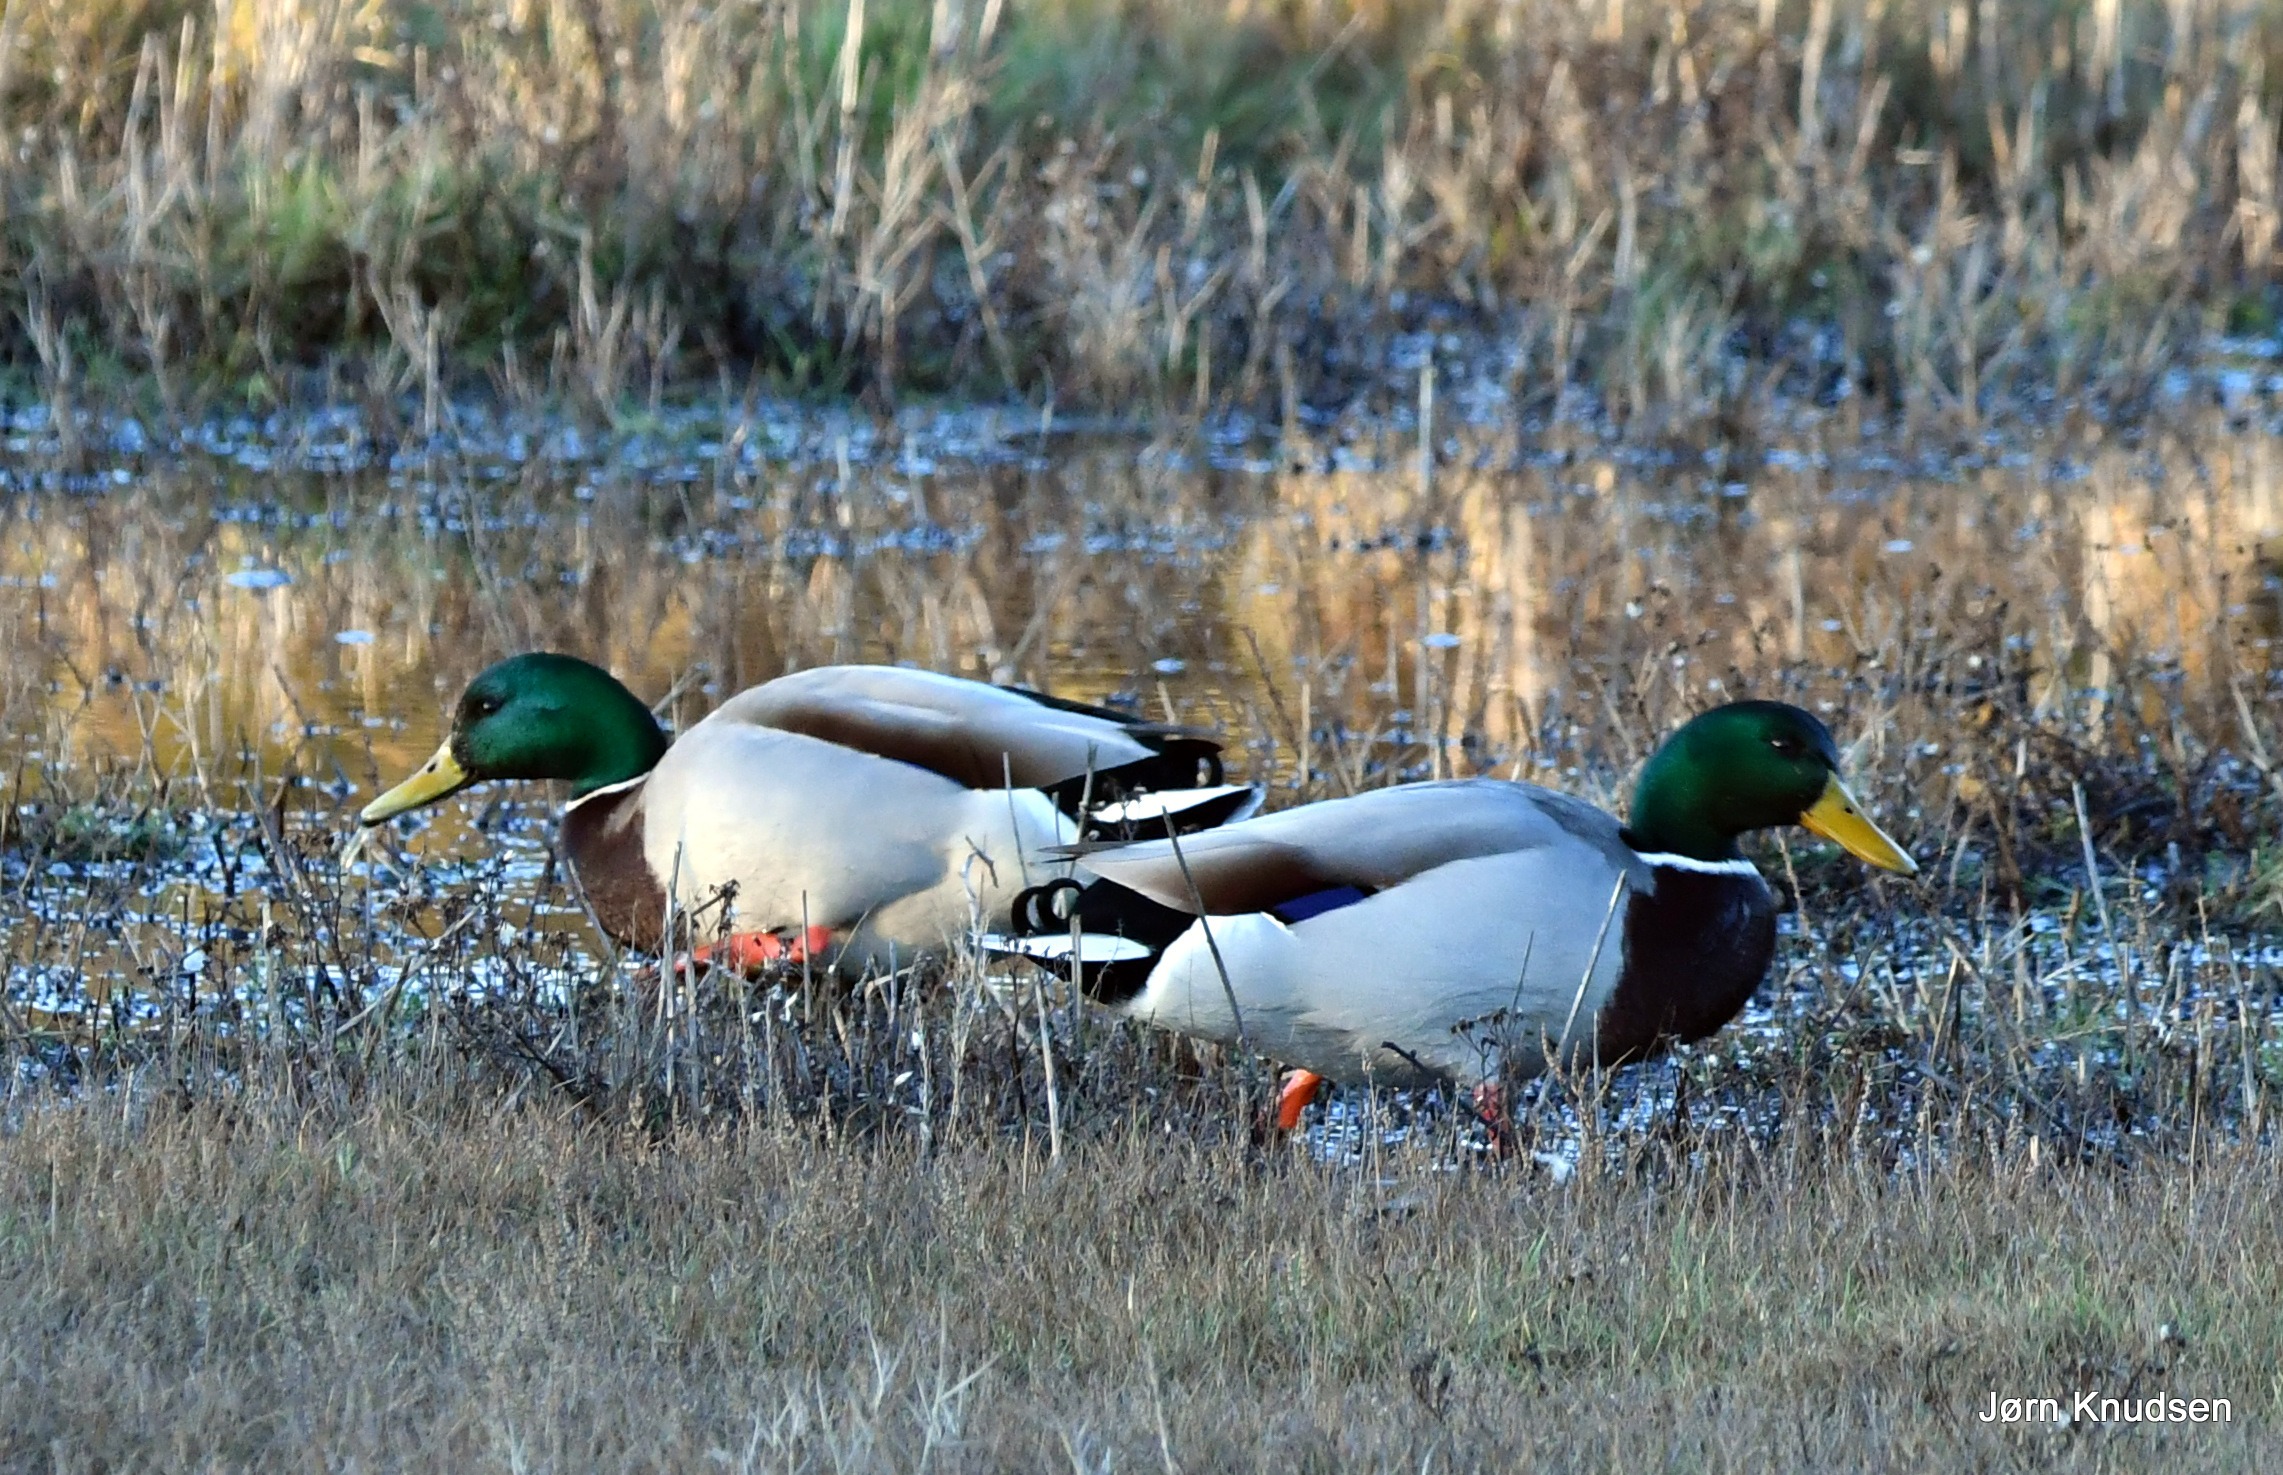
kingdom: Animalia
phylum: Chordata
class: Aves
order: Anseriformes
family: Anatidae
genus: Anas
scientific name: Anas platyrhynchos
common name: Gråand
